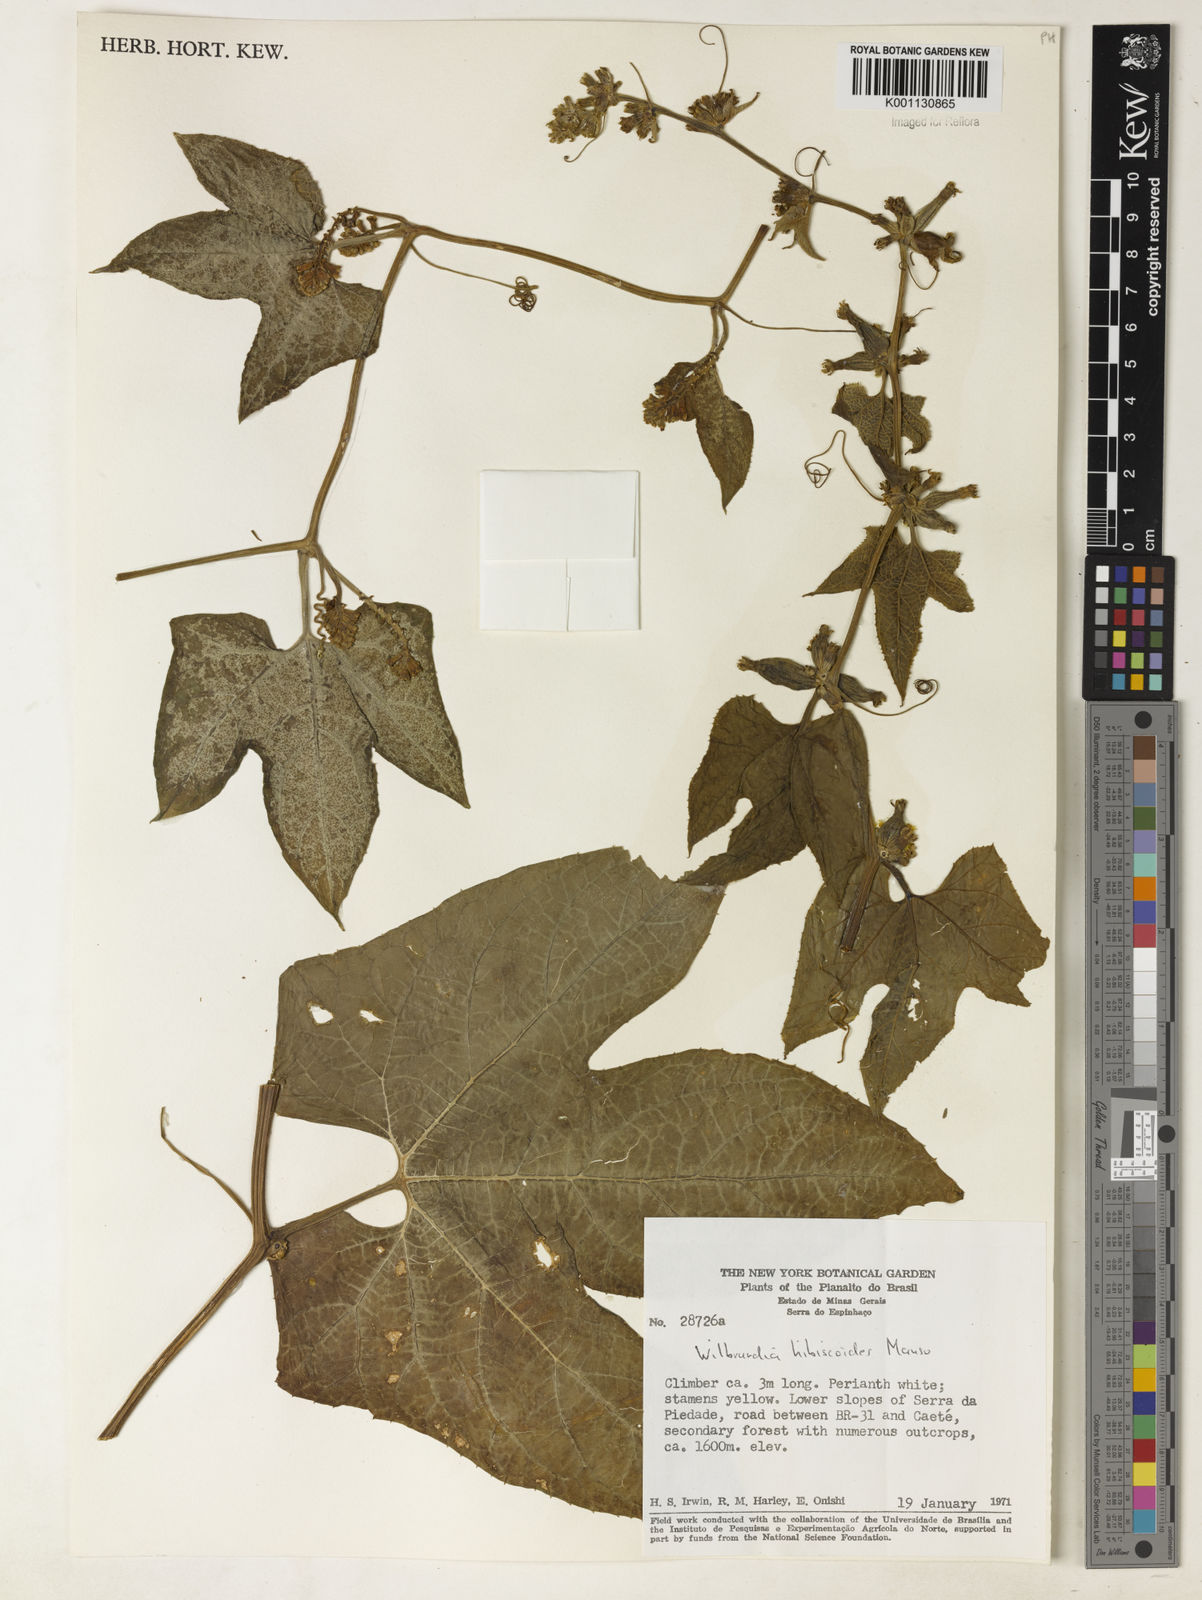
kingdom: Plantae
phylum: Tracheophyta
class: Magnoliopsida
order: Cucurbitales
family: Cucurbitaceae
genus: Wilbrandia
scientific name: Wilbrandia hibiscoides
